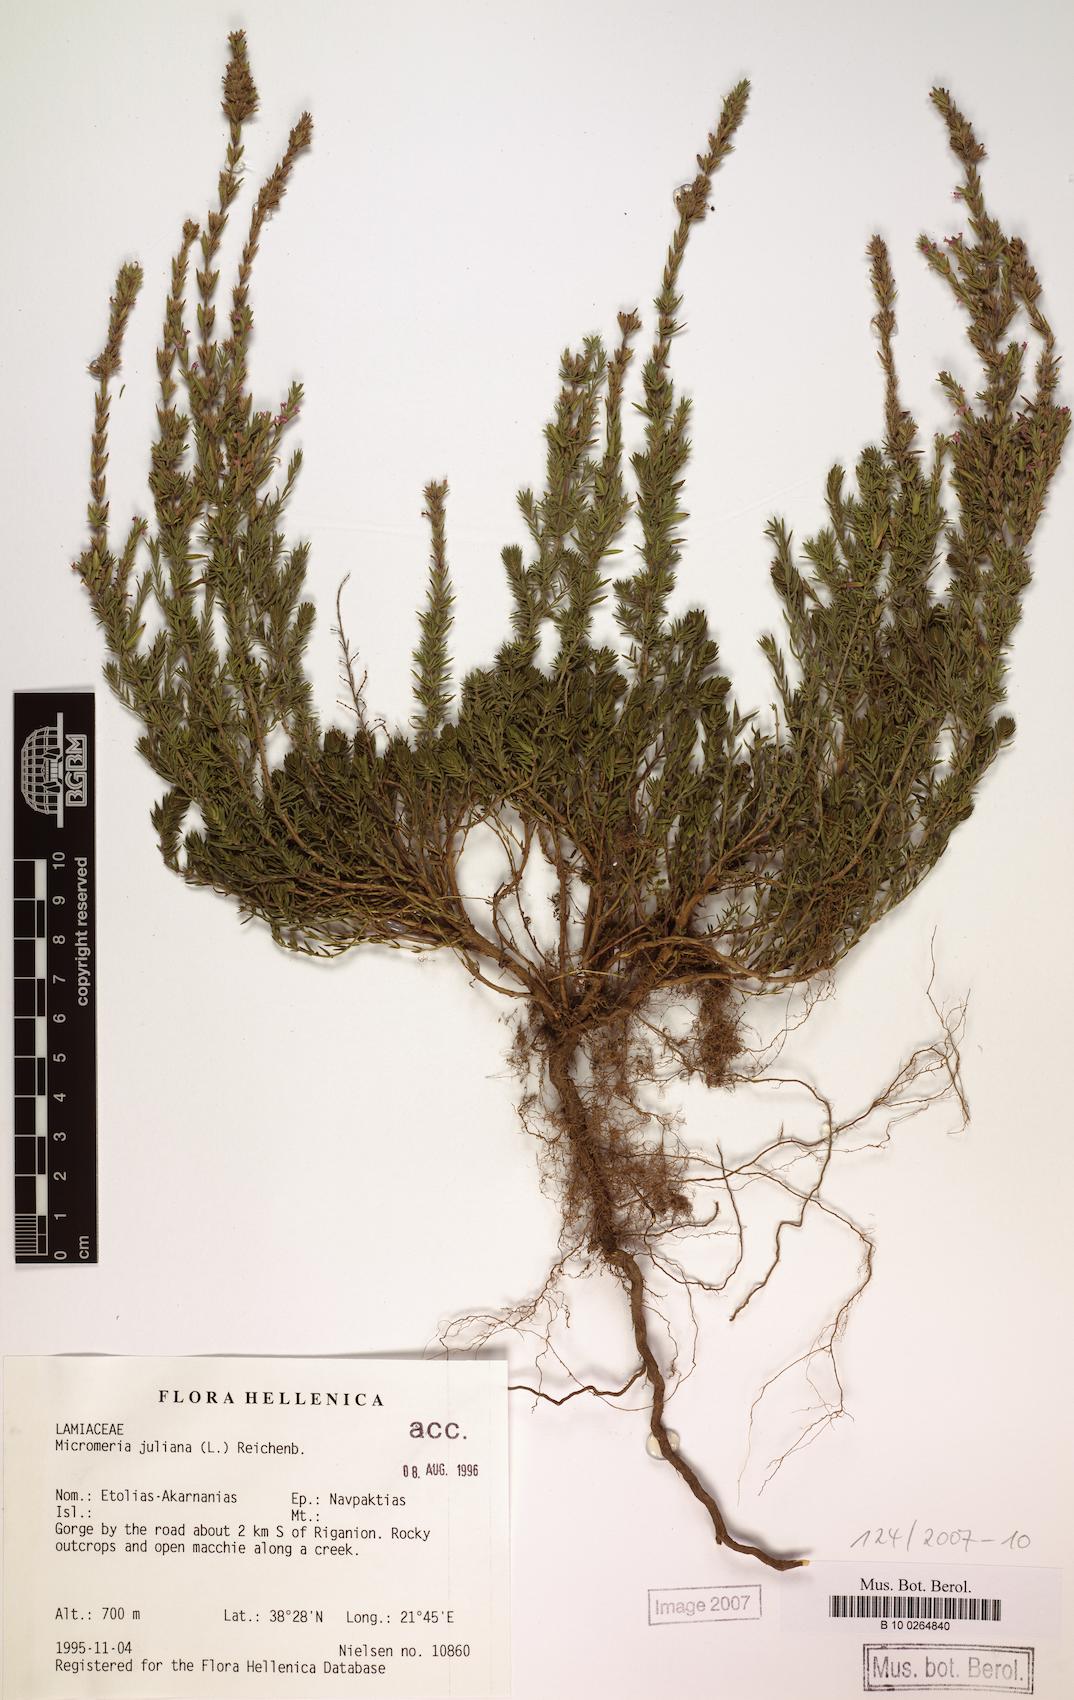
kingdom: Plantae
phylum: Tracheophyta
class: Magnoliopsida
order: Lamiales
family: Lamiaceae
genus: Micromeria
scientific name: Micromeria juliana
